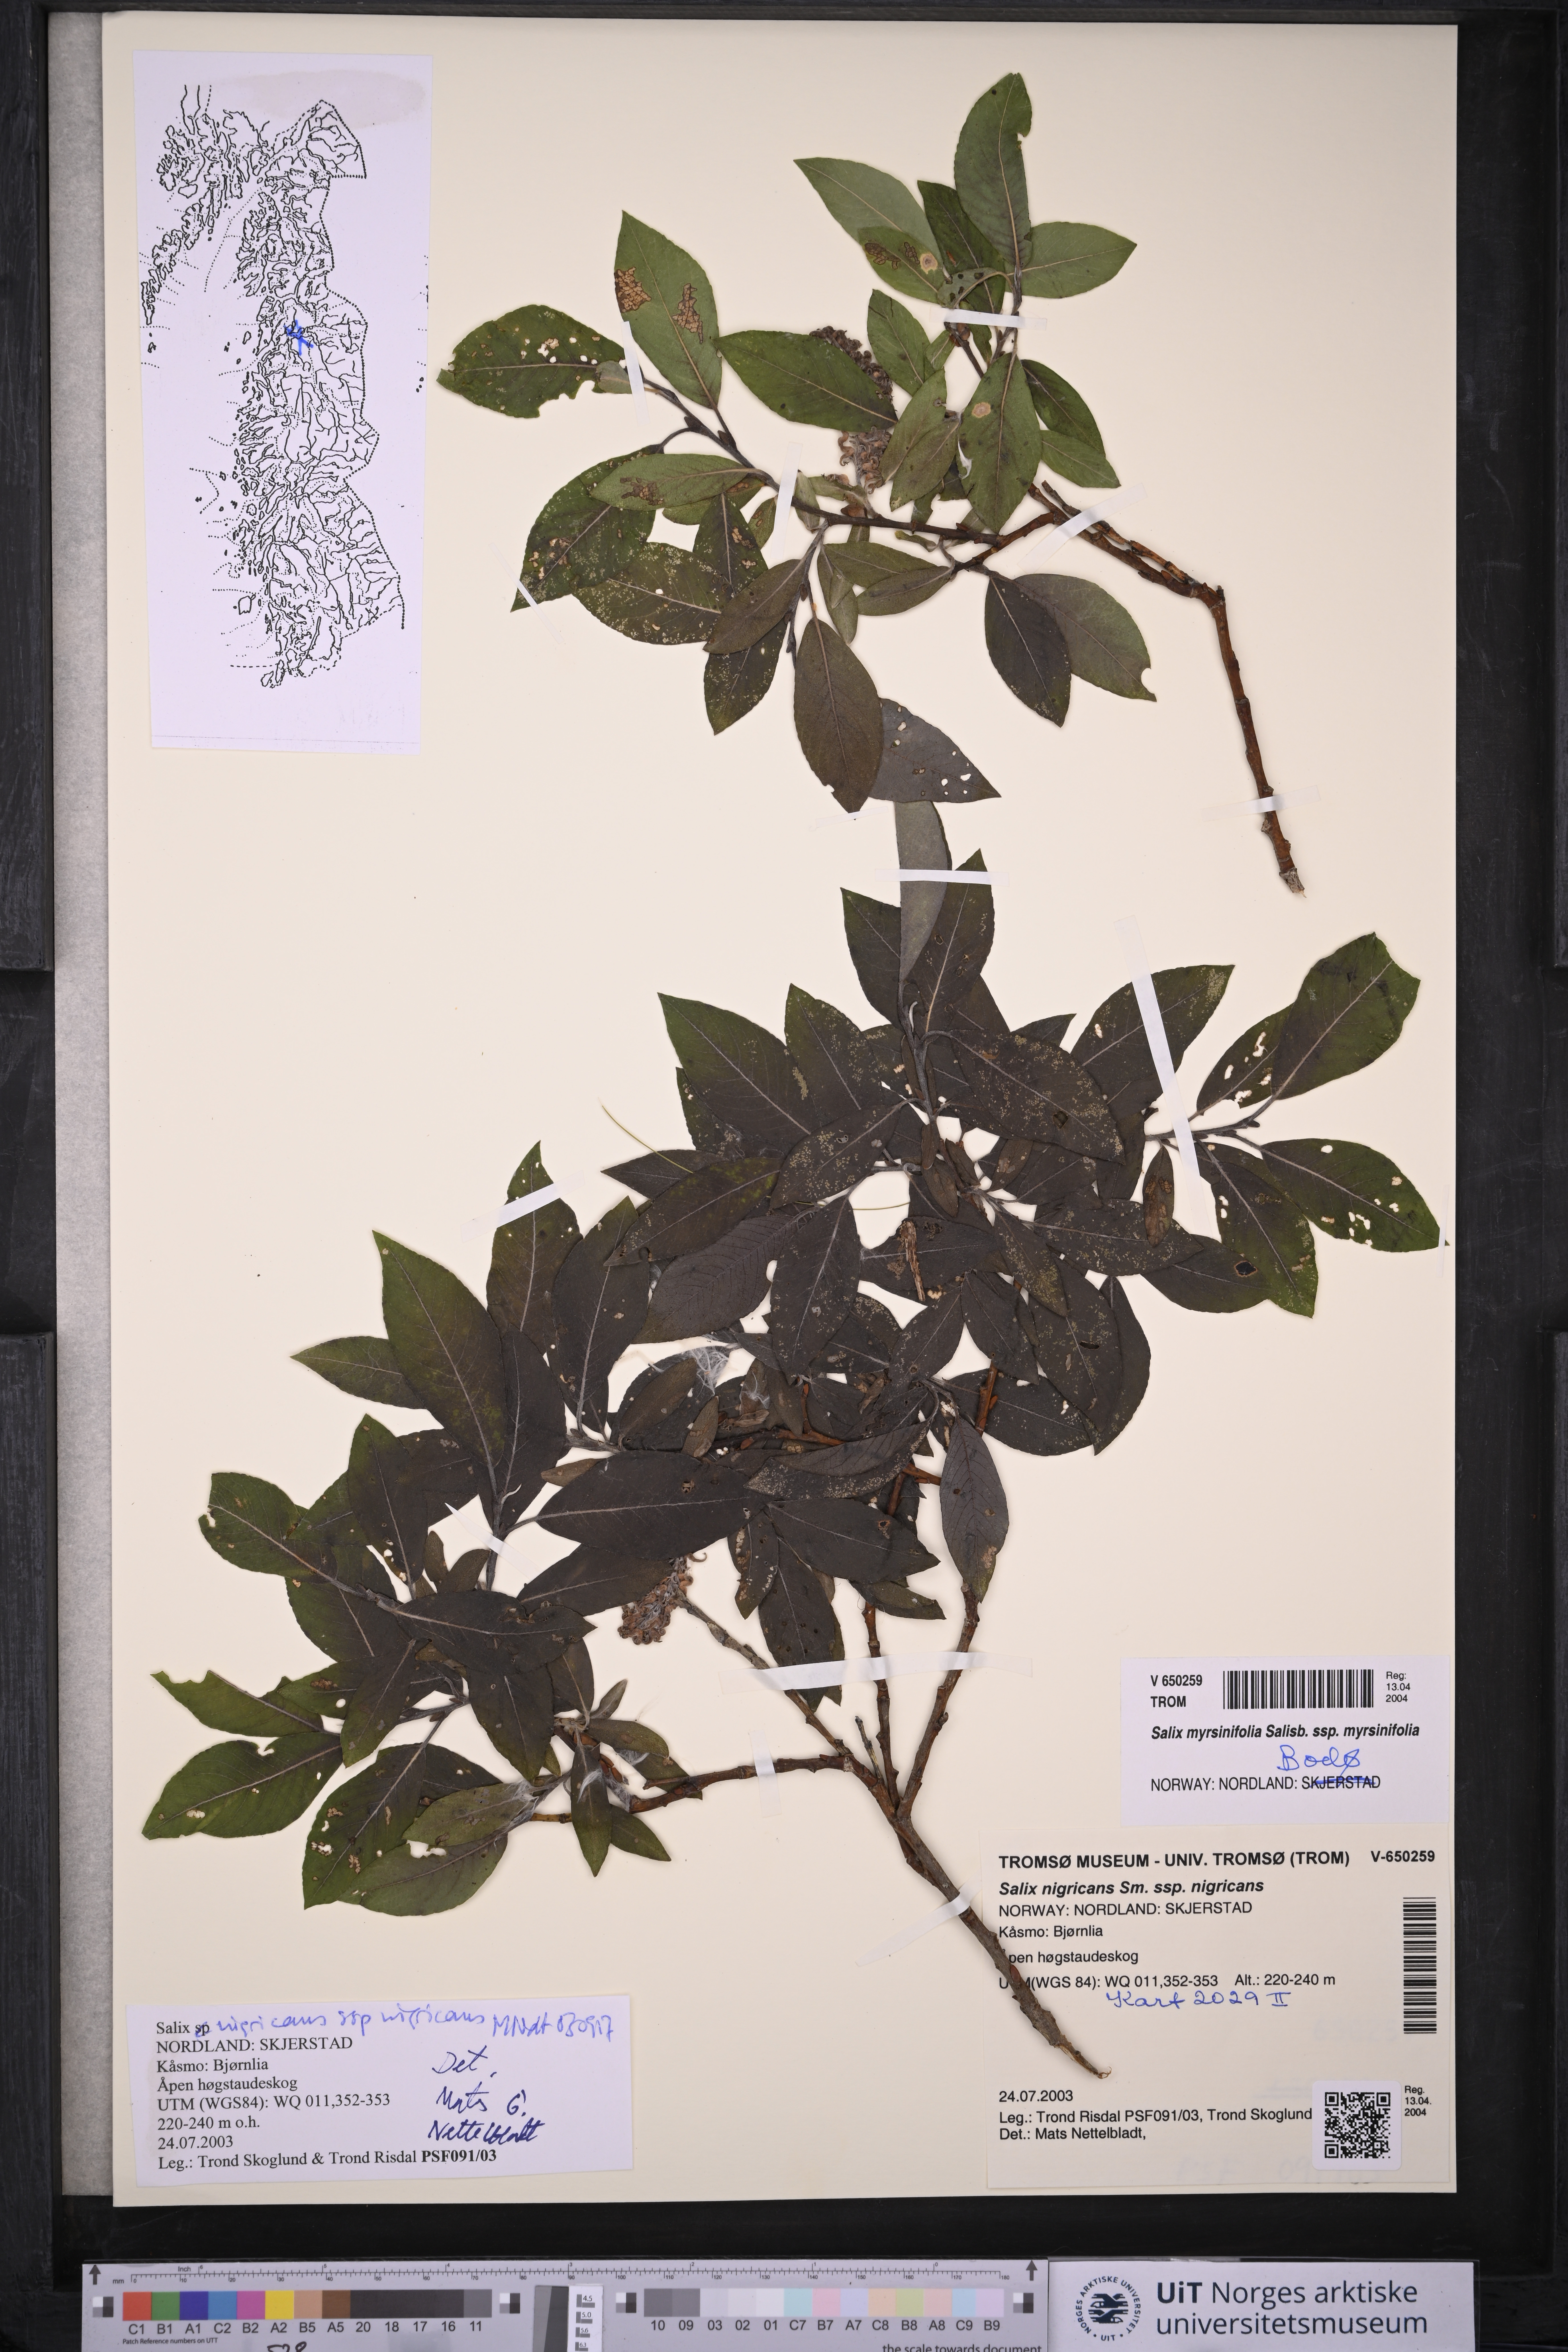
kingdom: Plantae
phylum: Tracheophyta
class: Magnoliopsida
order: Malpighiales
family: Salicaceae
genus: Salix
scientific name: Salix myrsinifolia
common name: Dark-leaved willow
